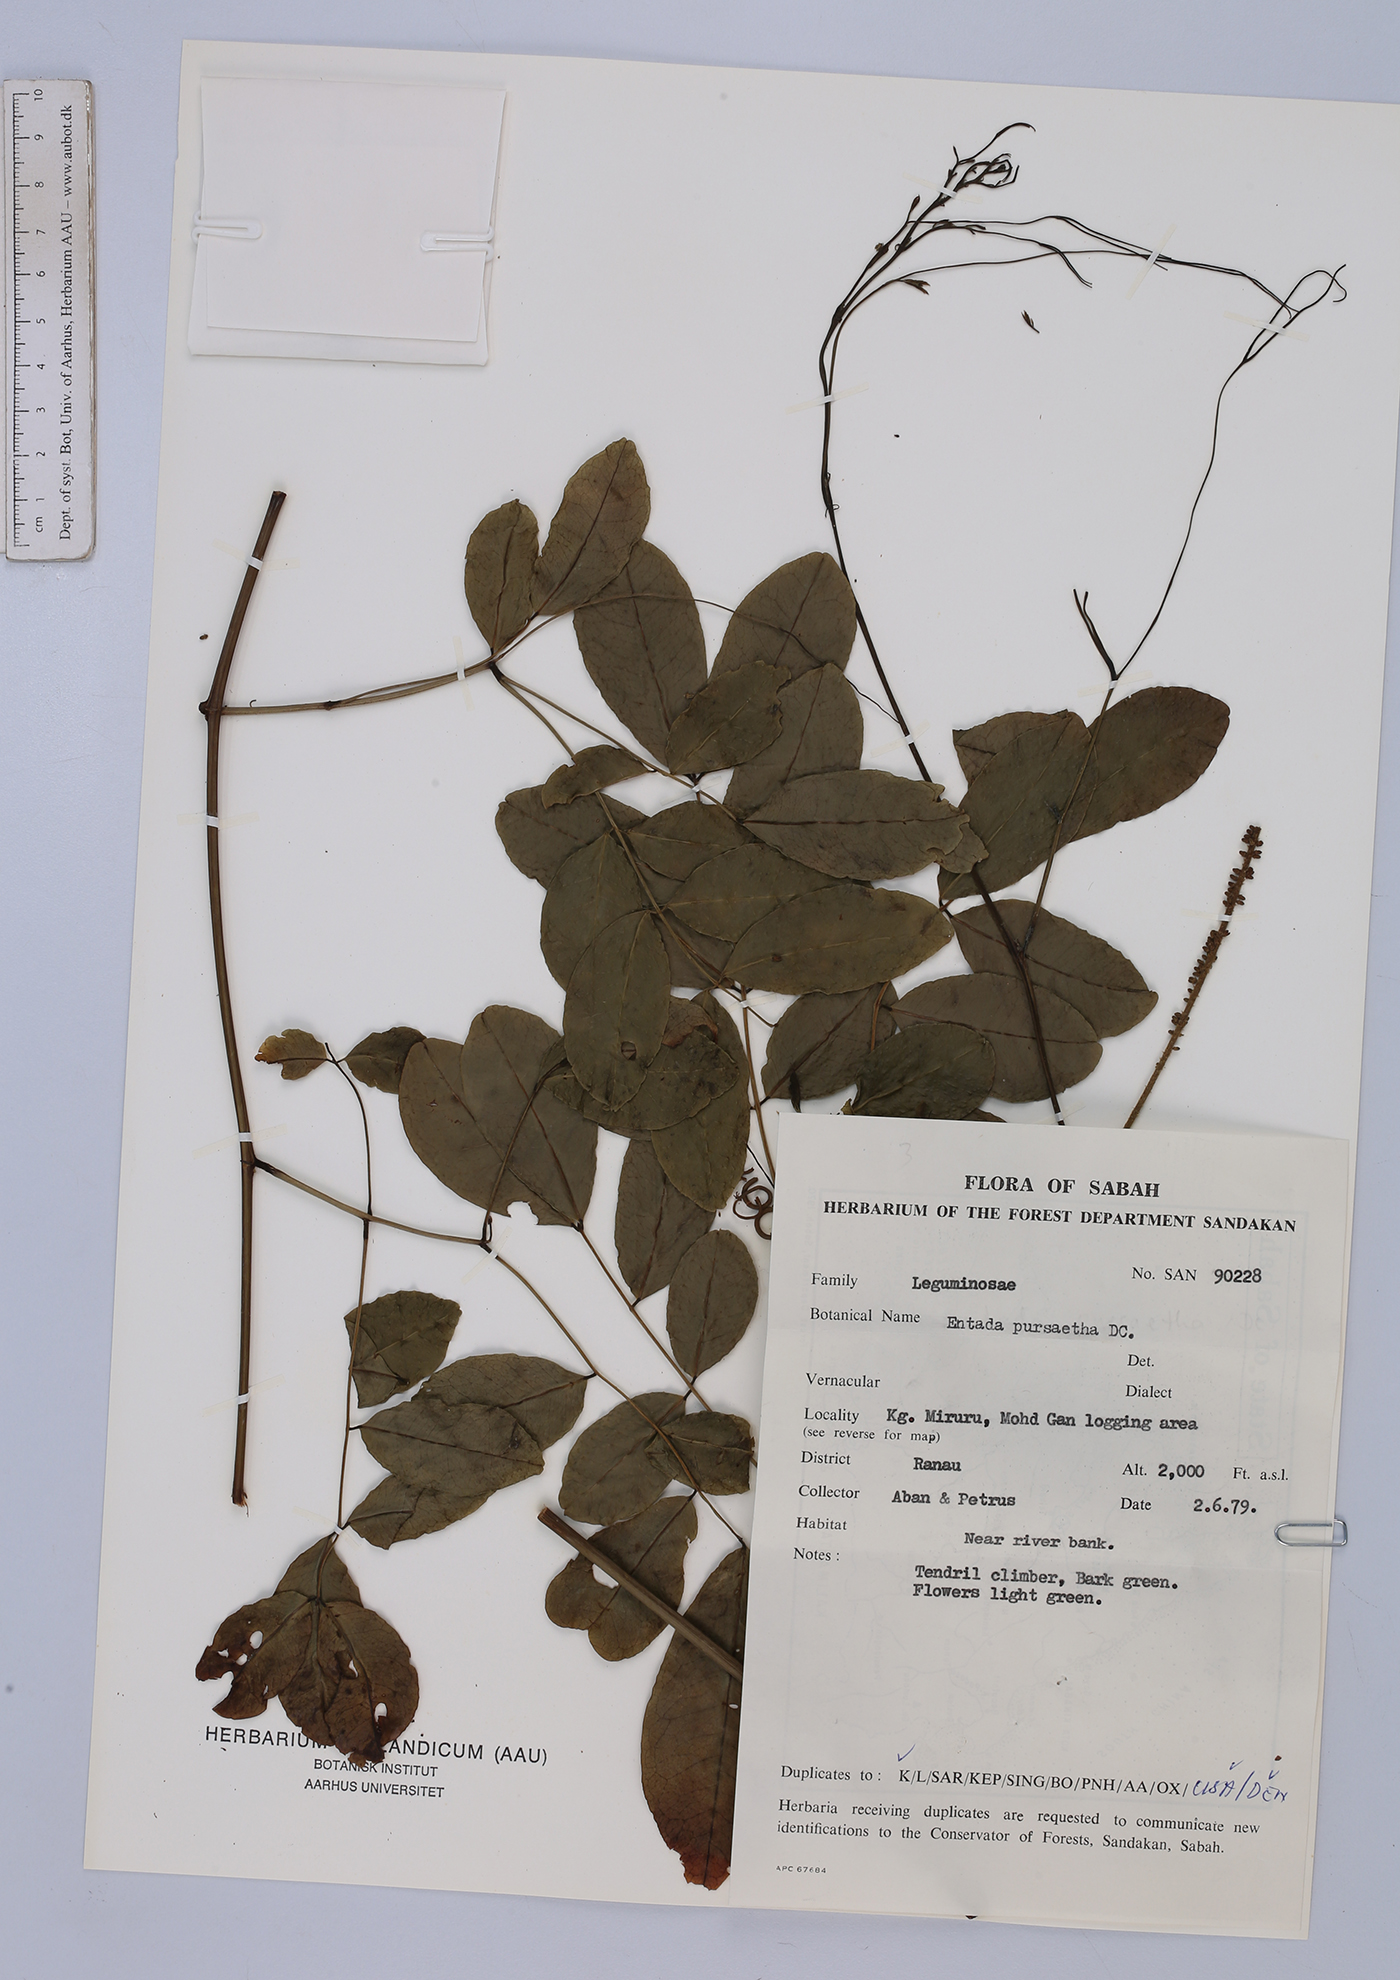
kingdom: Plantae
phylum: Tracheophyta
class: Magnoliopsida
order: Fabales
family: Fabaceae
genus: Entada
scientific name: Entada rheedei
